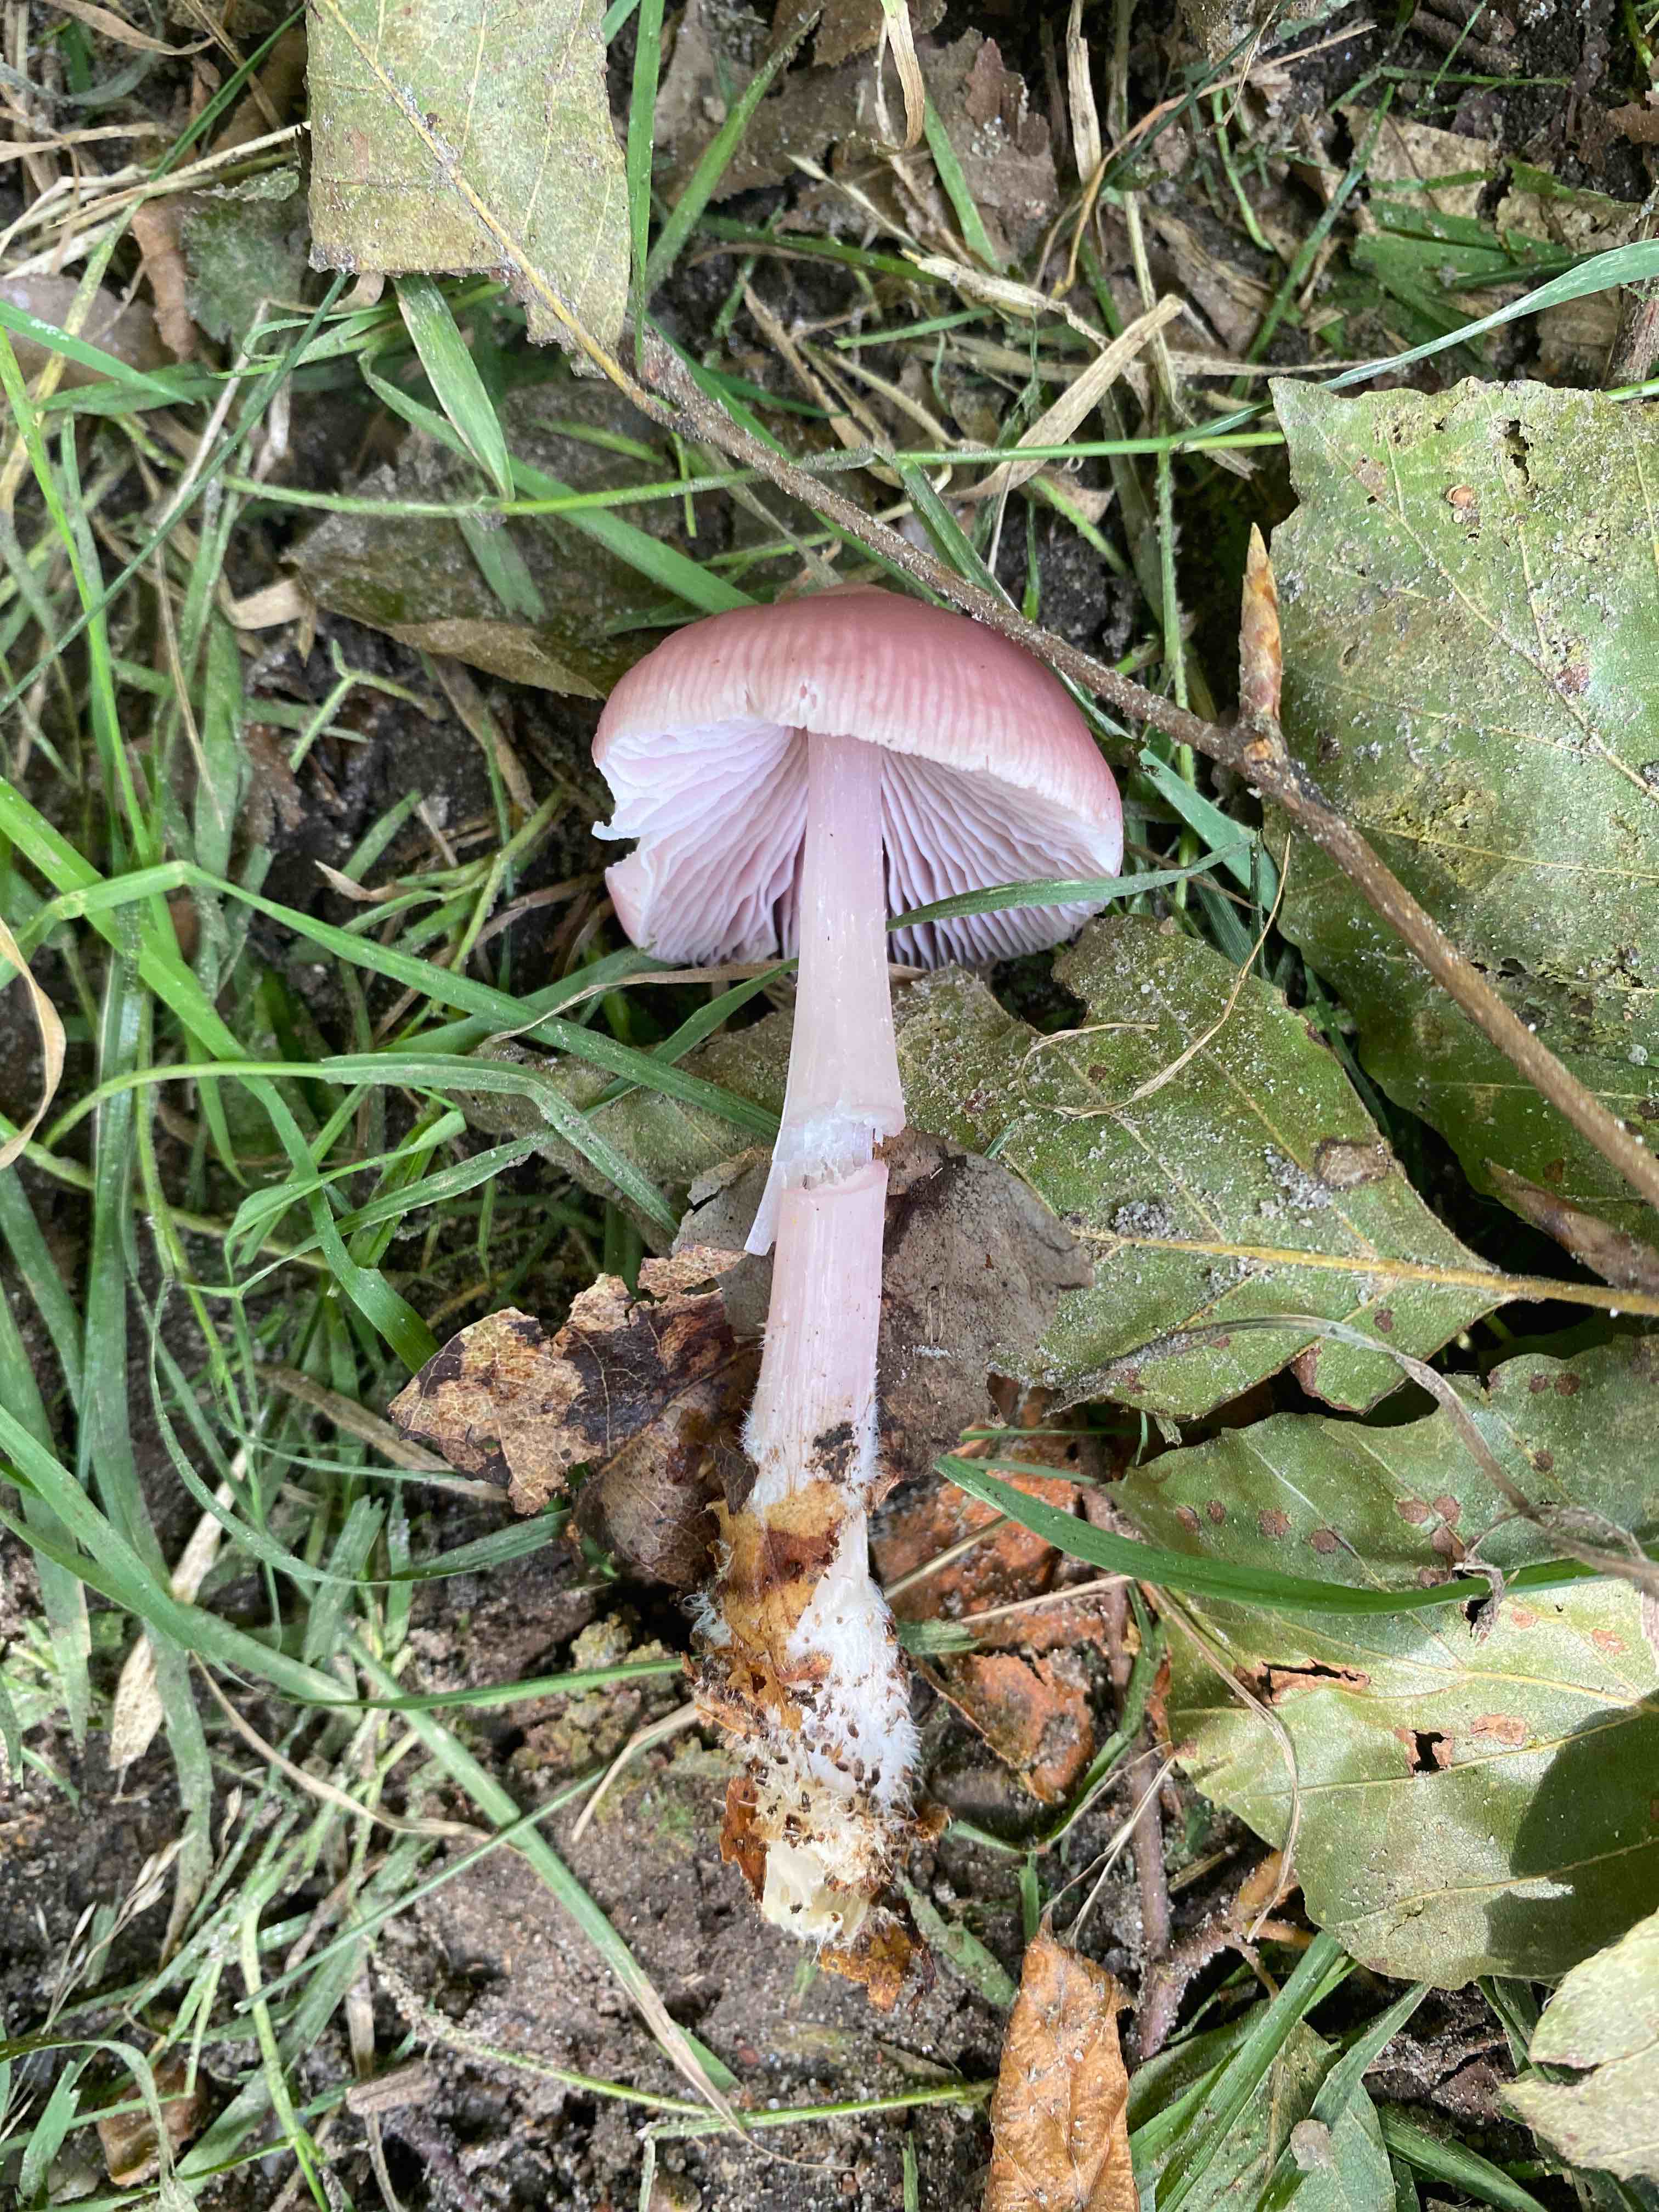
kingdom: Fungi
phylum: Basidiomycota
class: Agaricomycetes
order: Agaricales
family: Mycenaceae
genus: Mycena
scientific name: Mycena rosea
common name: rosa huesvamp
